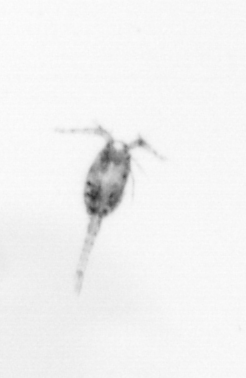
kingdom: Animalia
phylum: Arthropoda
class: Copepoda
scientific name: Copepoda
